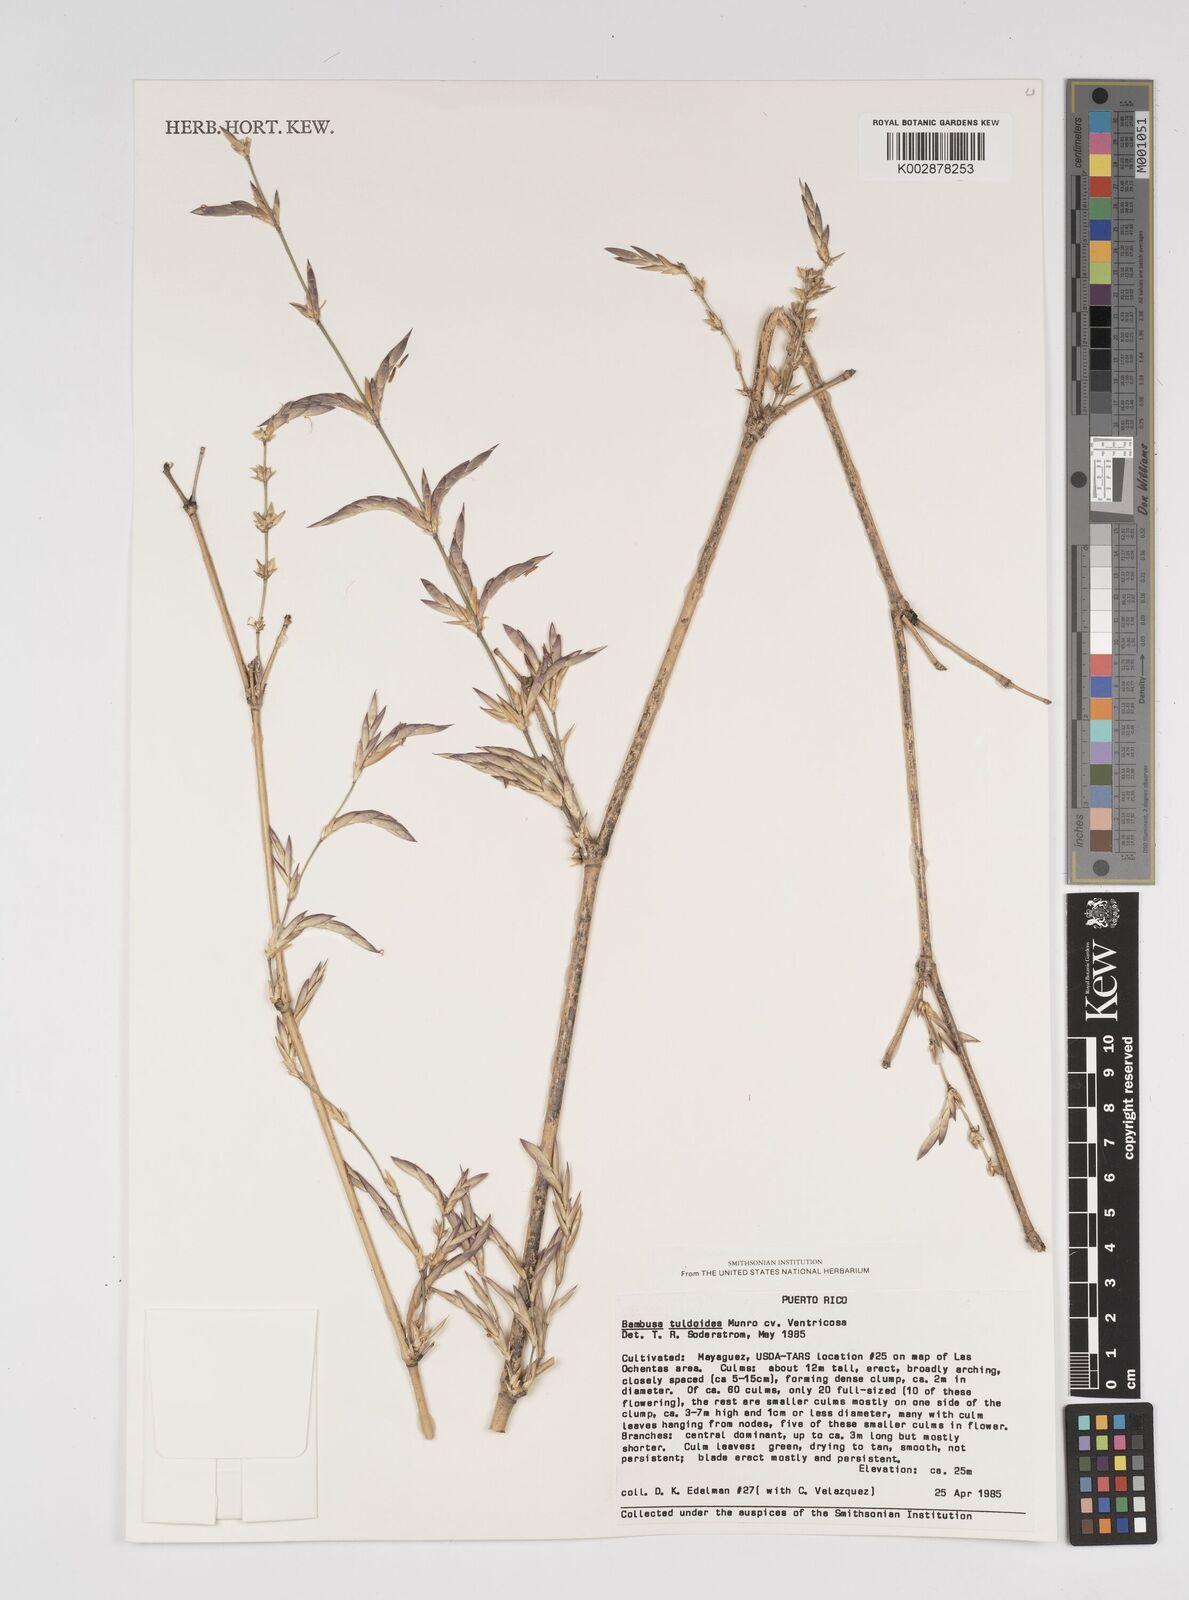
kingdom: Plantae
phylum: Tracheophyta
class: Liliopsida
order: Poales
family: Poaceae
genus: Bambusa
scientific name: Bambusa tuldoides
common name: Verdant bamboo
